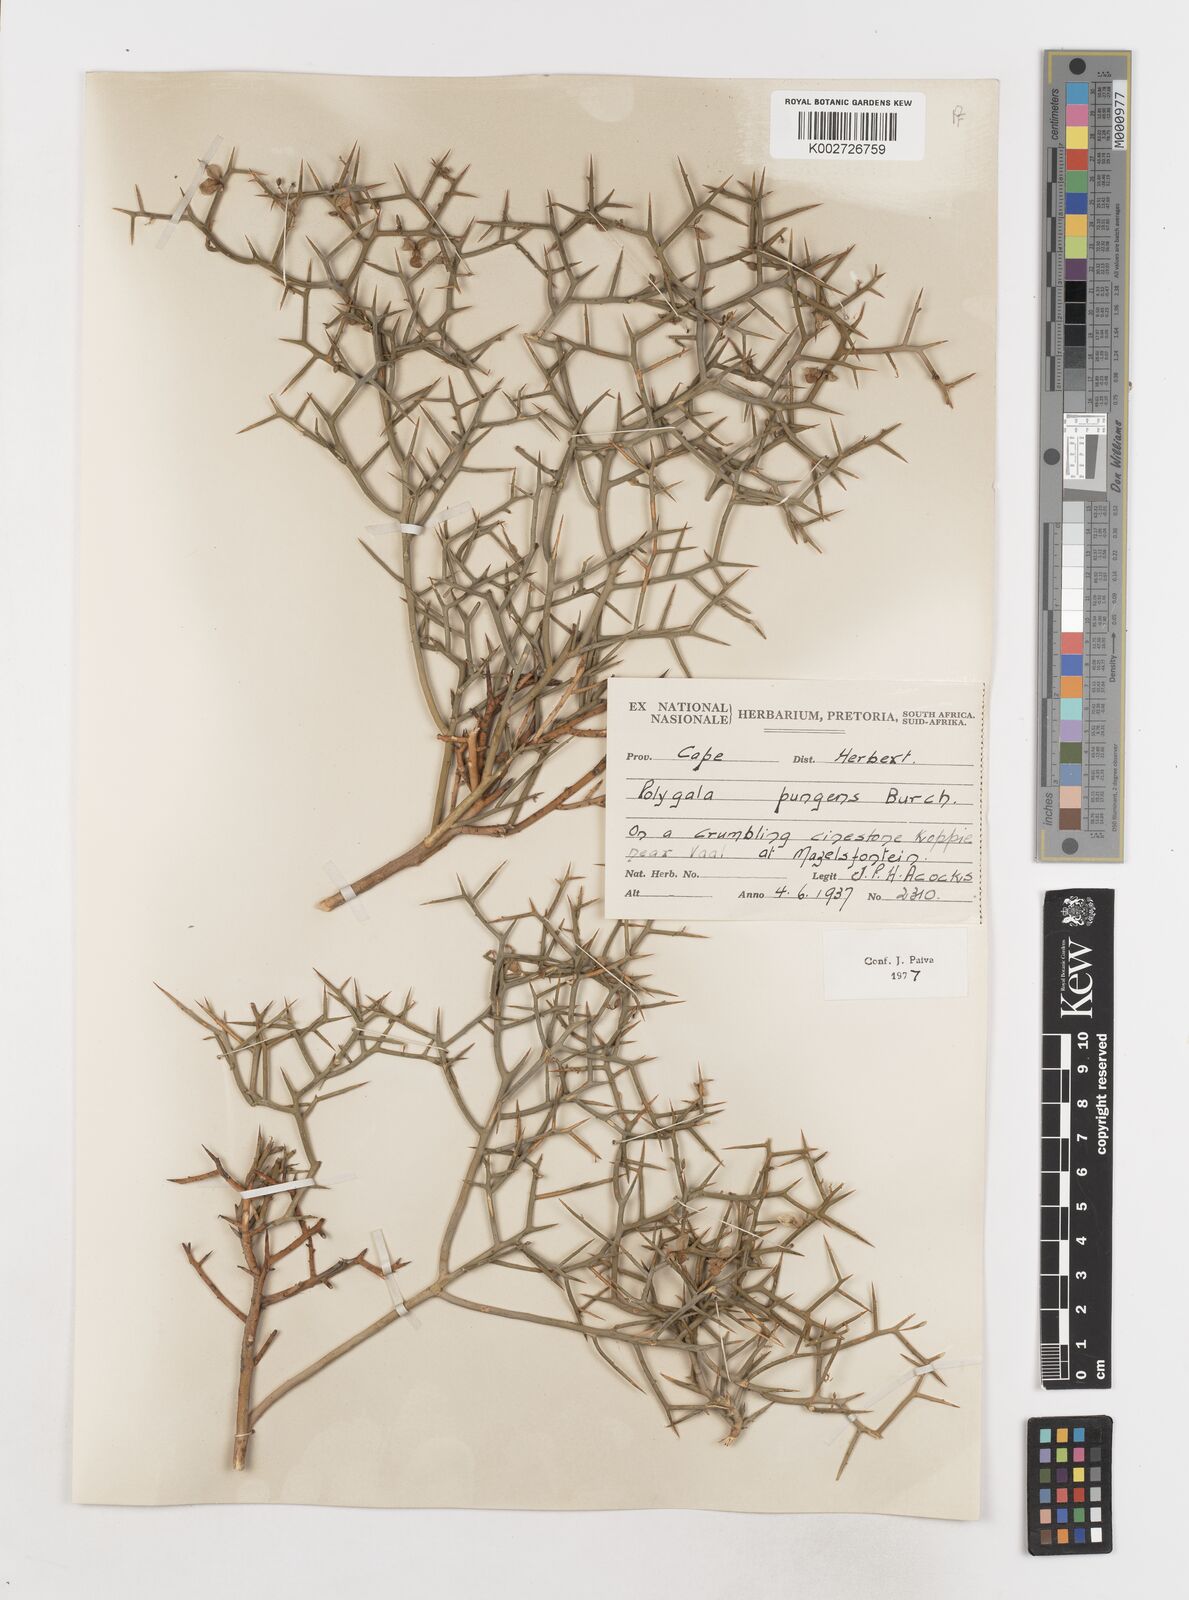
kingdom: Plantae
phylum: Tracheophyta
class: Magnoliopsida
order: Fabales
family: Polygalaceae
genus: Polygala
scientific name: Polygala pungens
